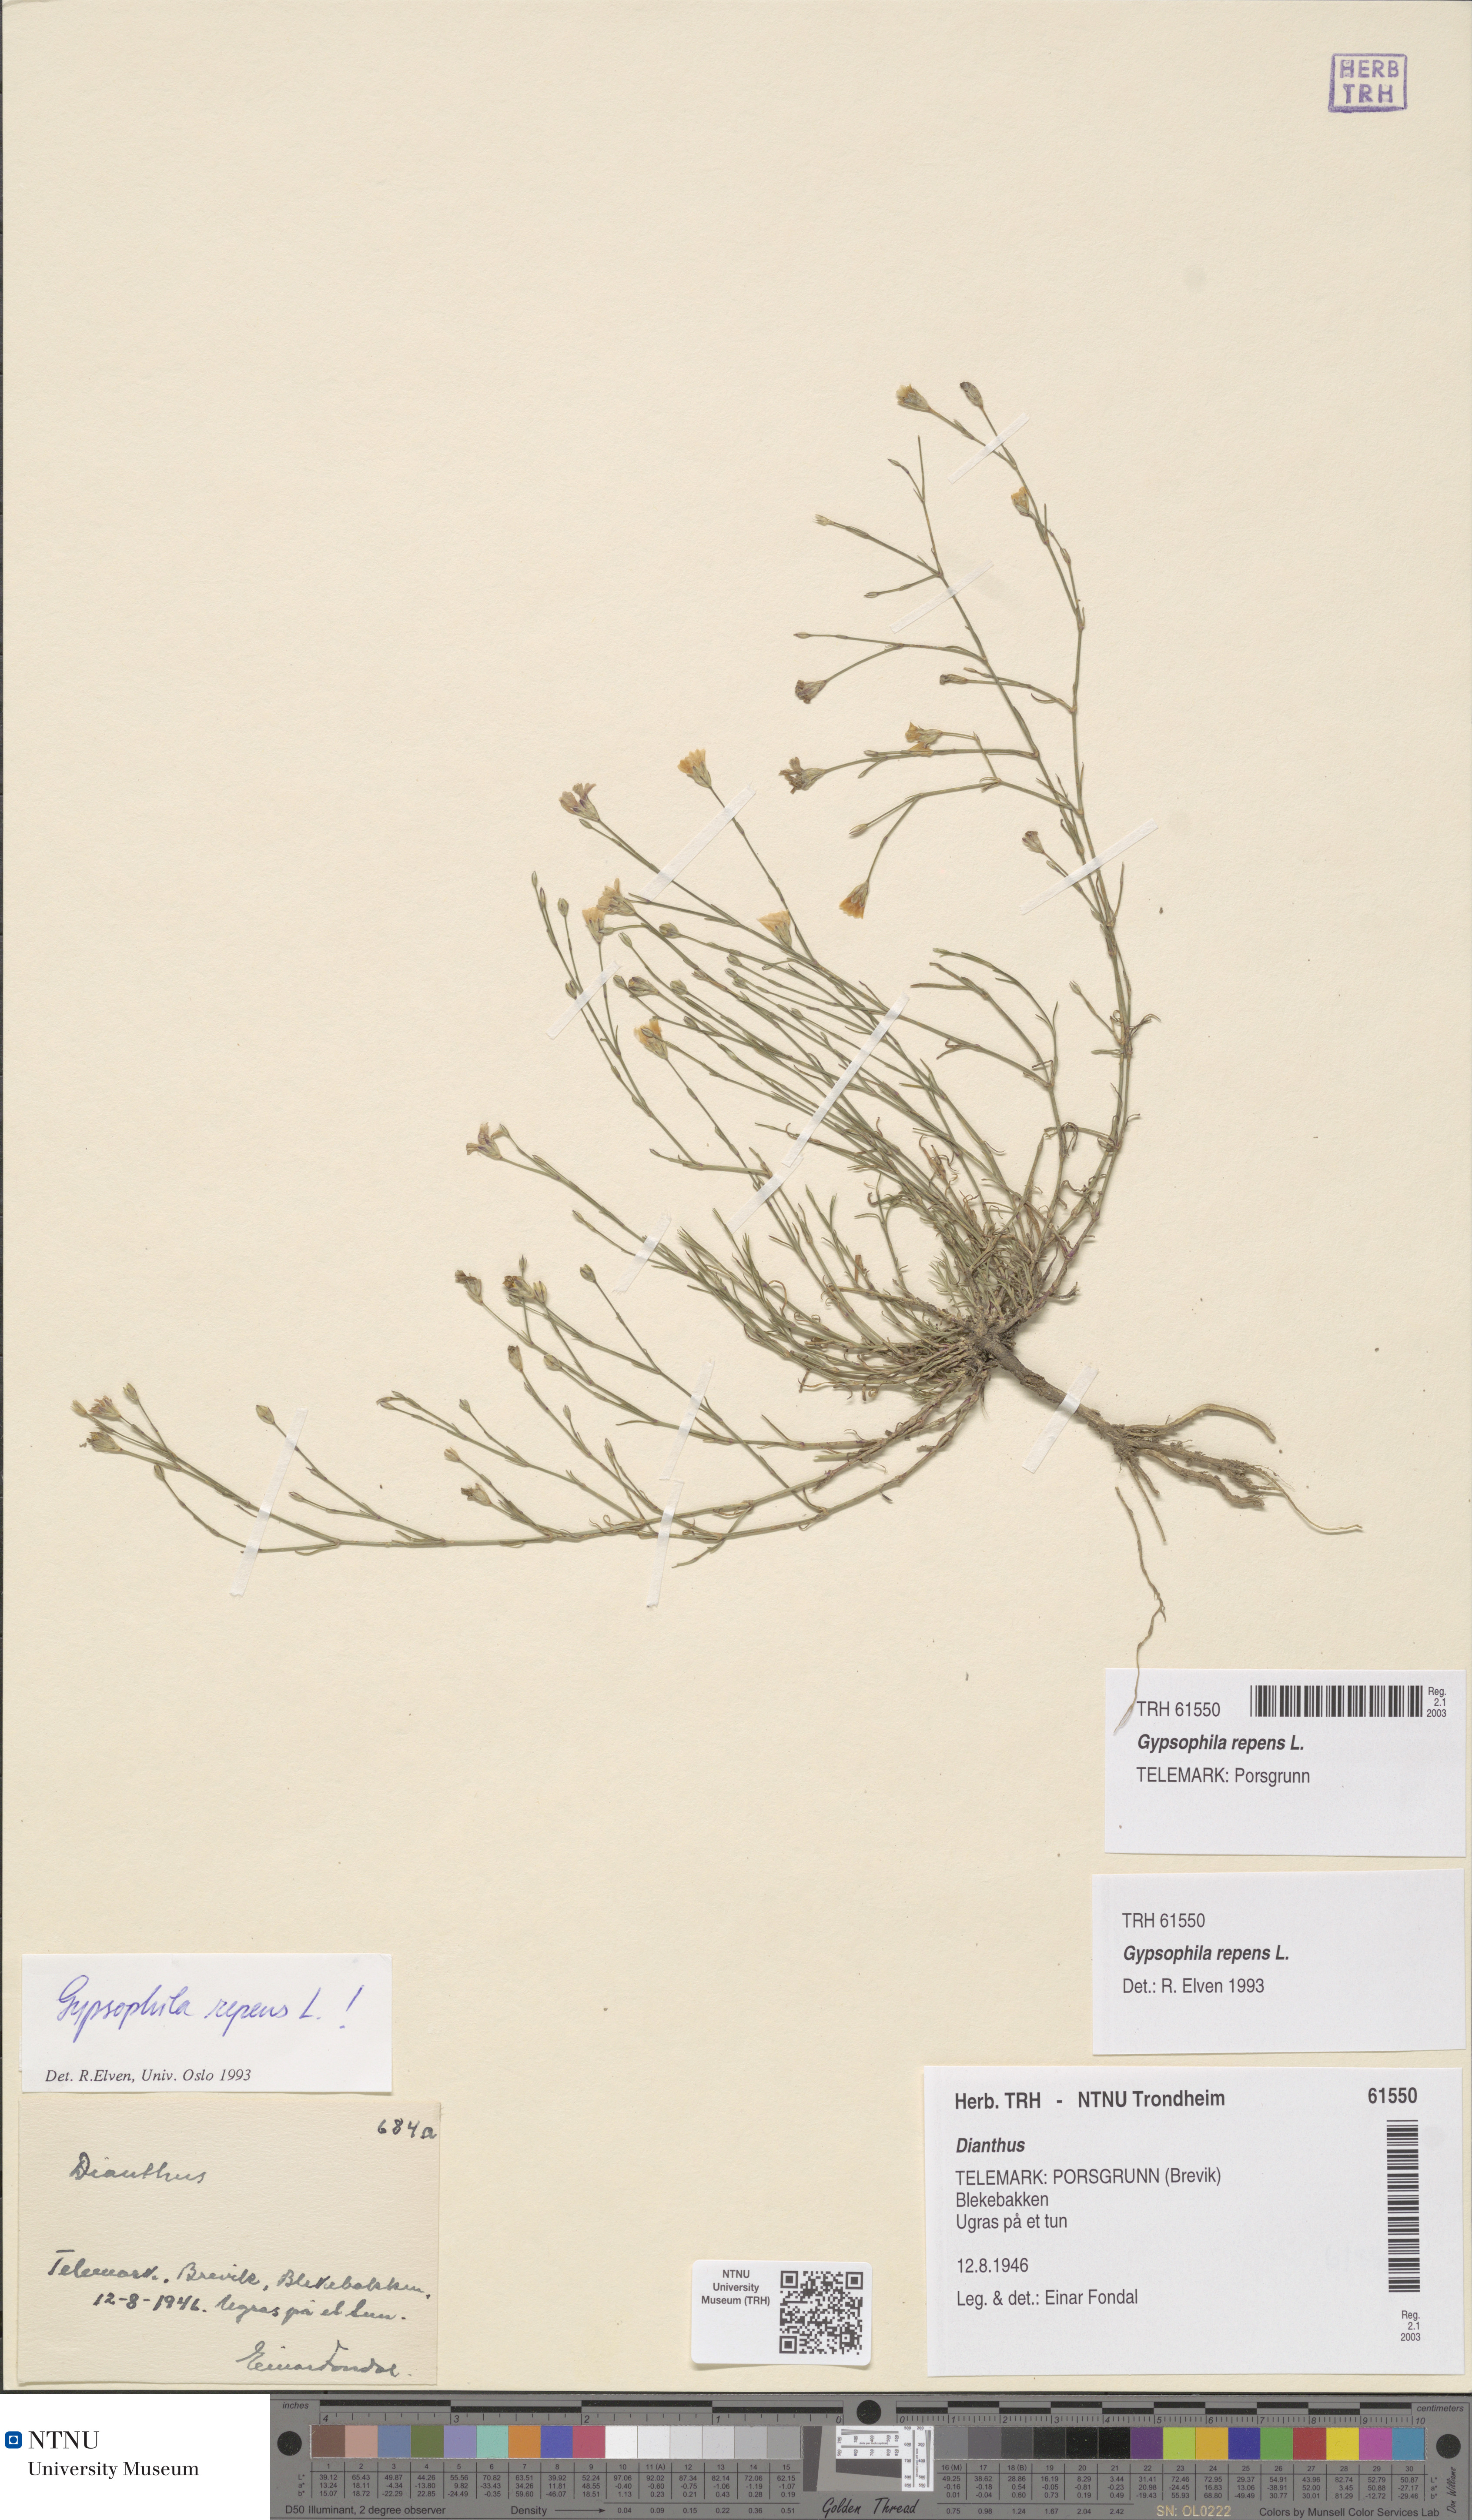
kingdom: Plantae
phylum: Tracheophyta
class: Magnoliopsida
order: Caryophyllales
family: Caryophyllaceae
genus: Gypsophila
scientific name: Gypsophila repens
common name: Creeping baby's-breath
